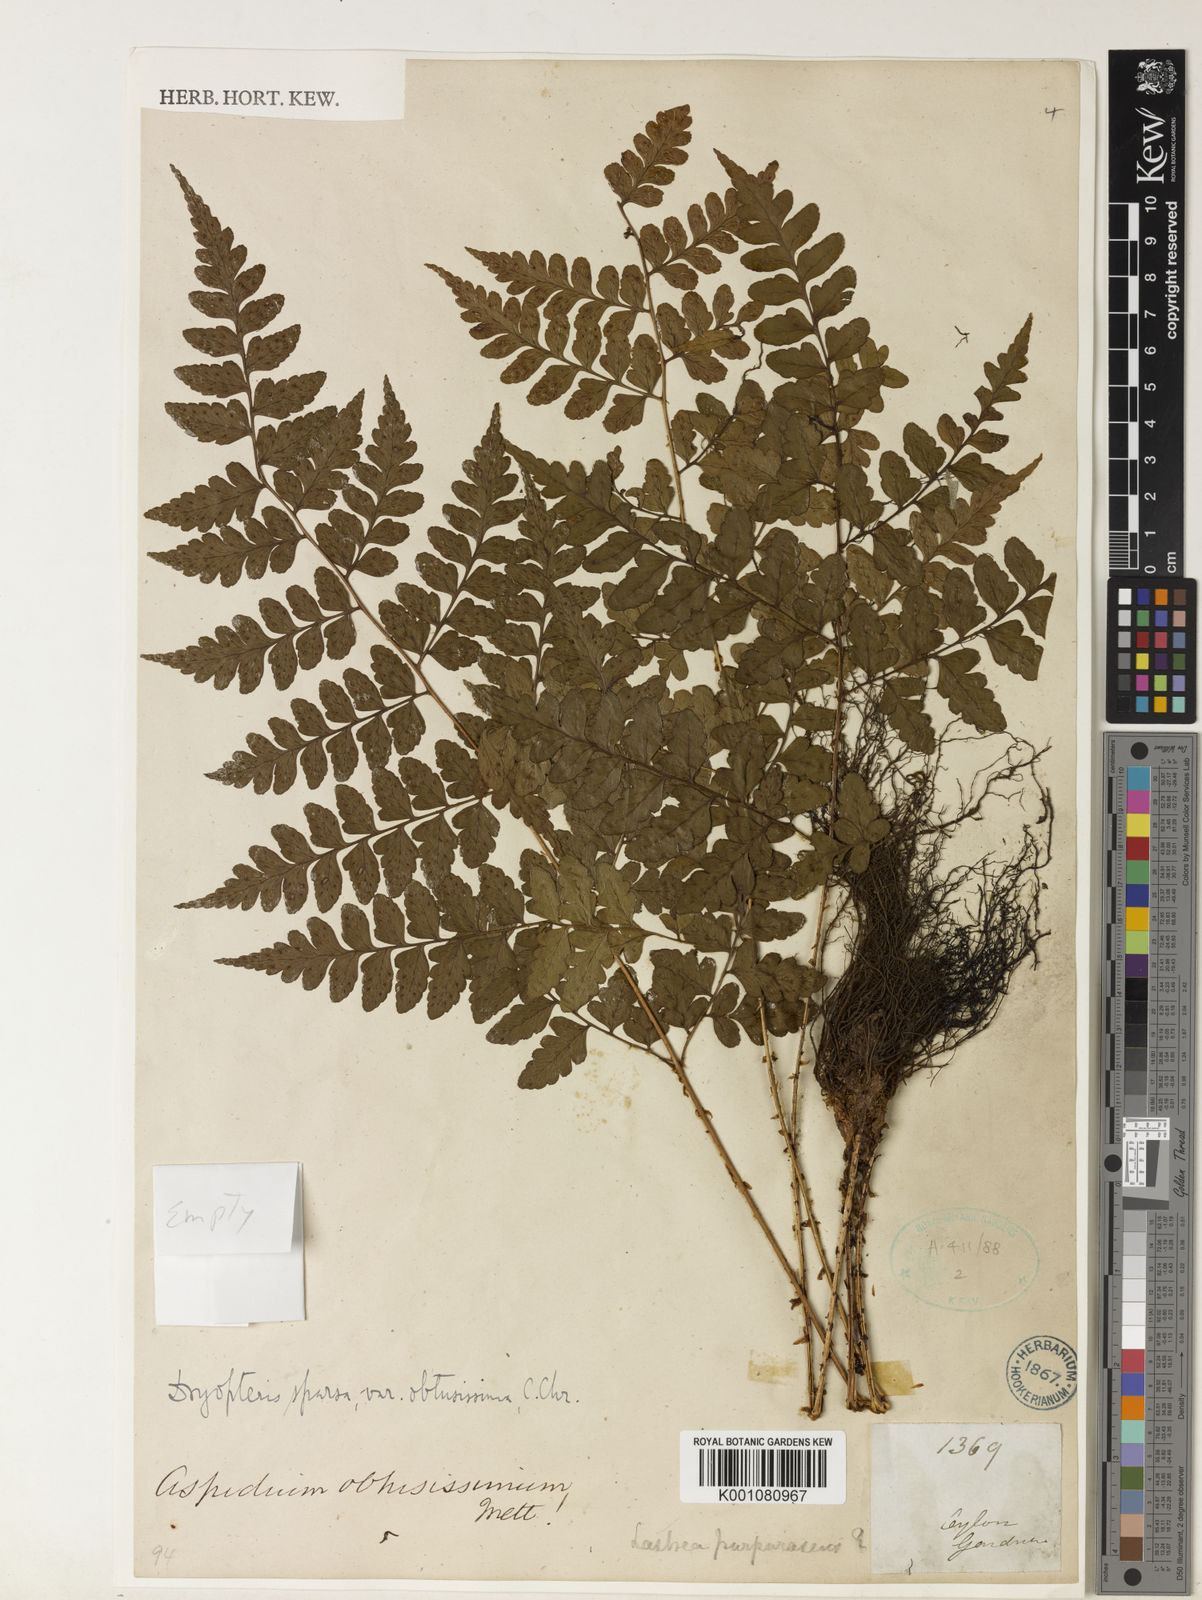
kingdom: Plantae
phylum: Tracheophyta
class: Polypodiopsida
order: Polypodiales
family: Dryopteridaceae
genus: Dryopteris
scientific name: Dryopteris
